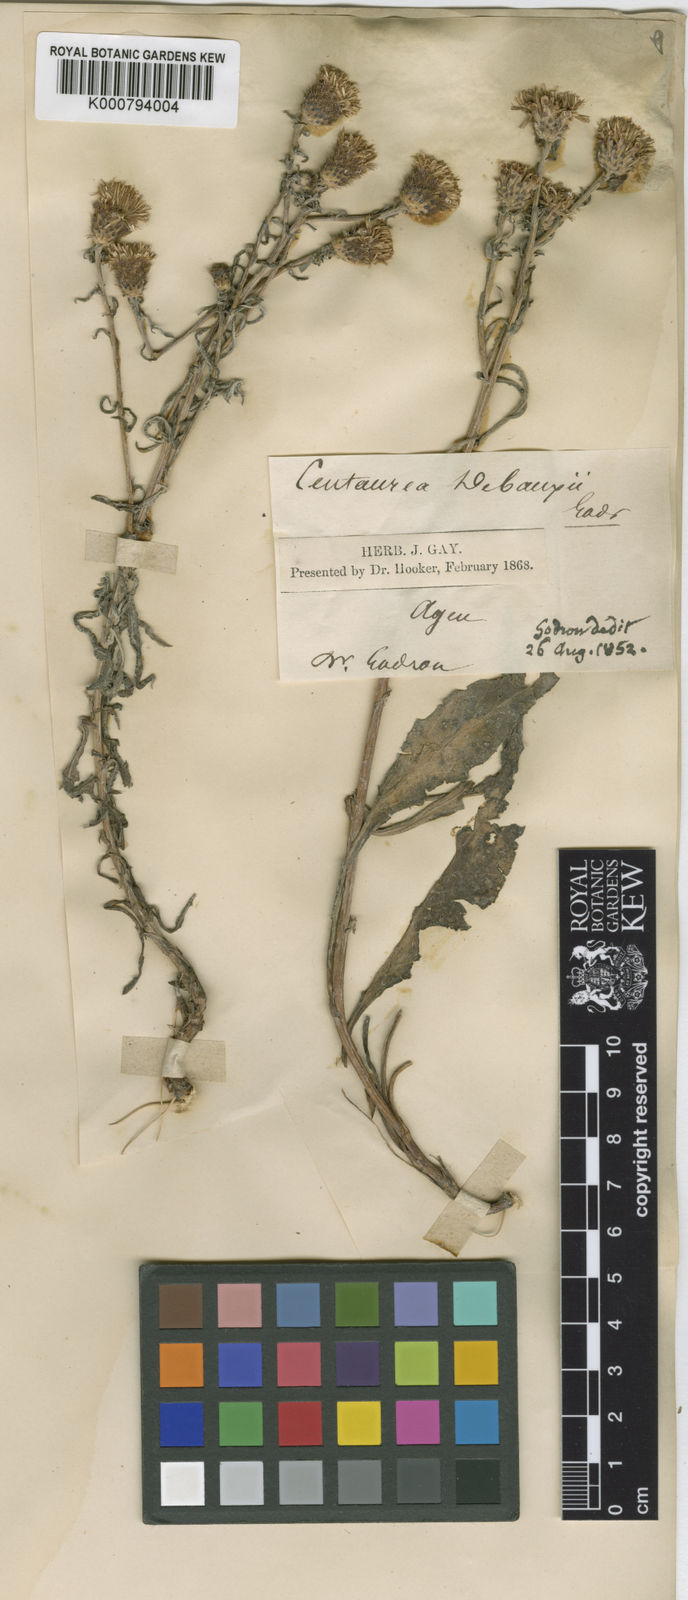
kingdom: Plantae
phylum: Tracheophyta
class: Magnoliopsida
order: Asterales
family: Asteraceae
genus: Centaurea
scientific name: Centaurea debeauxii
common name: Slender knapweed
